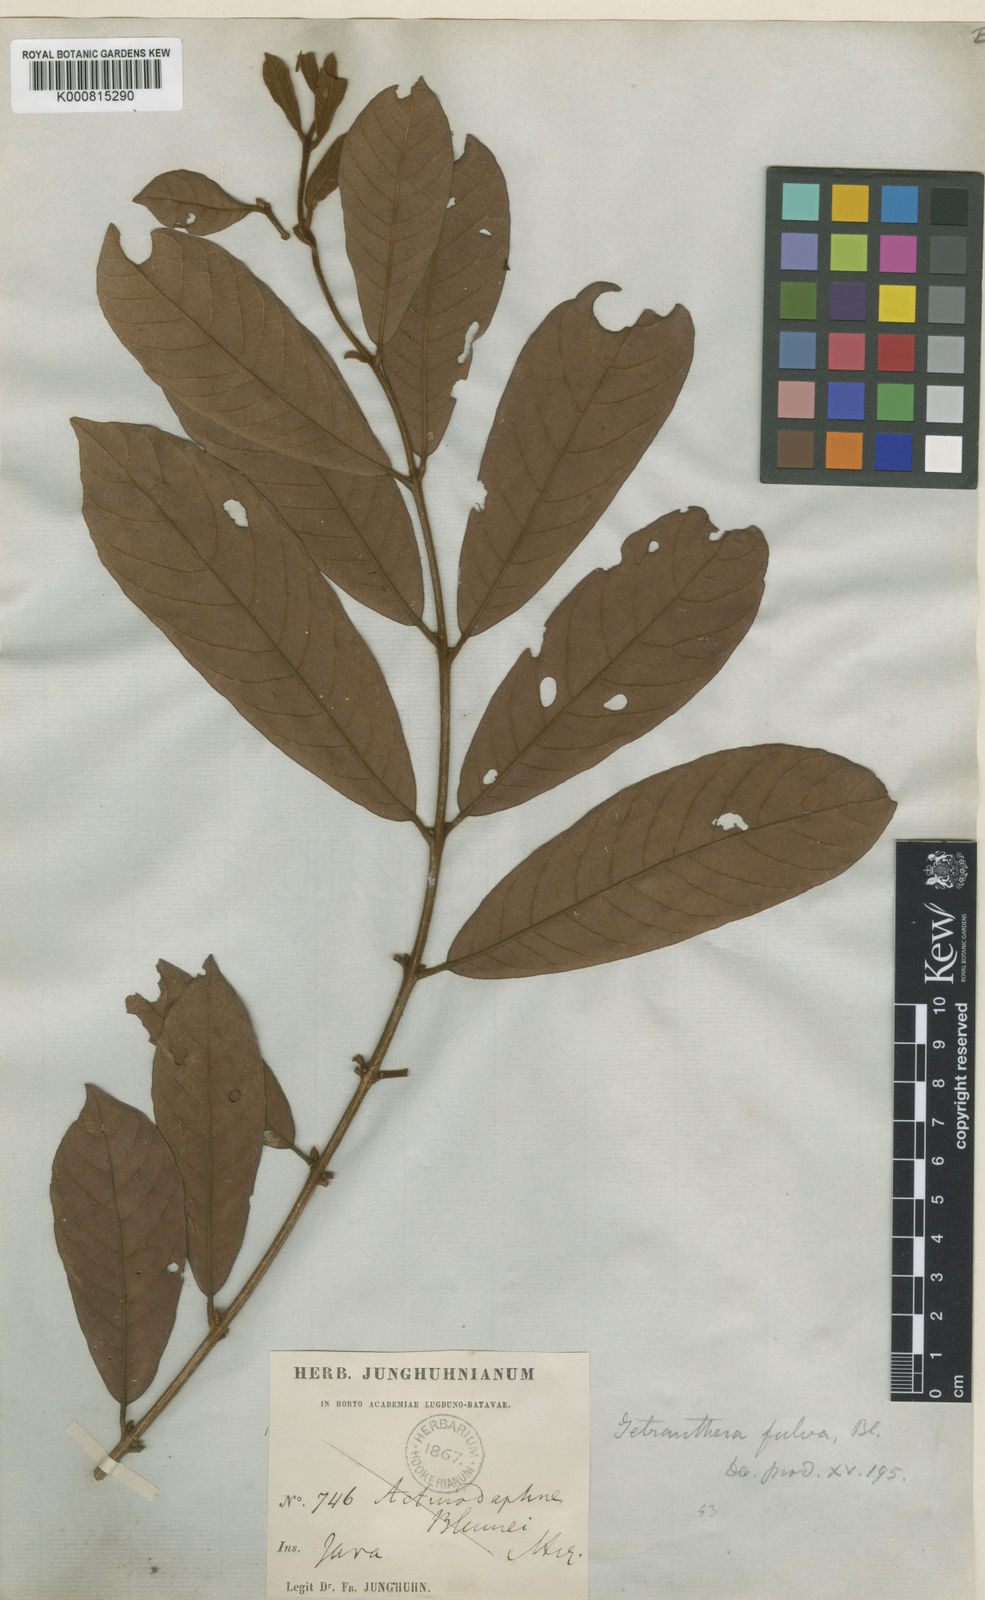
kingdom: Plantae
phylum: Tracheophyta
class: Magnoliopsida
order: Laurales
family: Lauraceae
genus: Litsea
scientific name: Litsea oppositifolia
